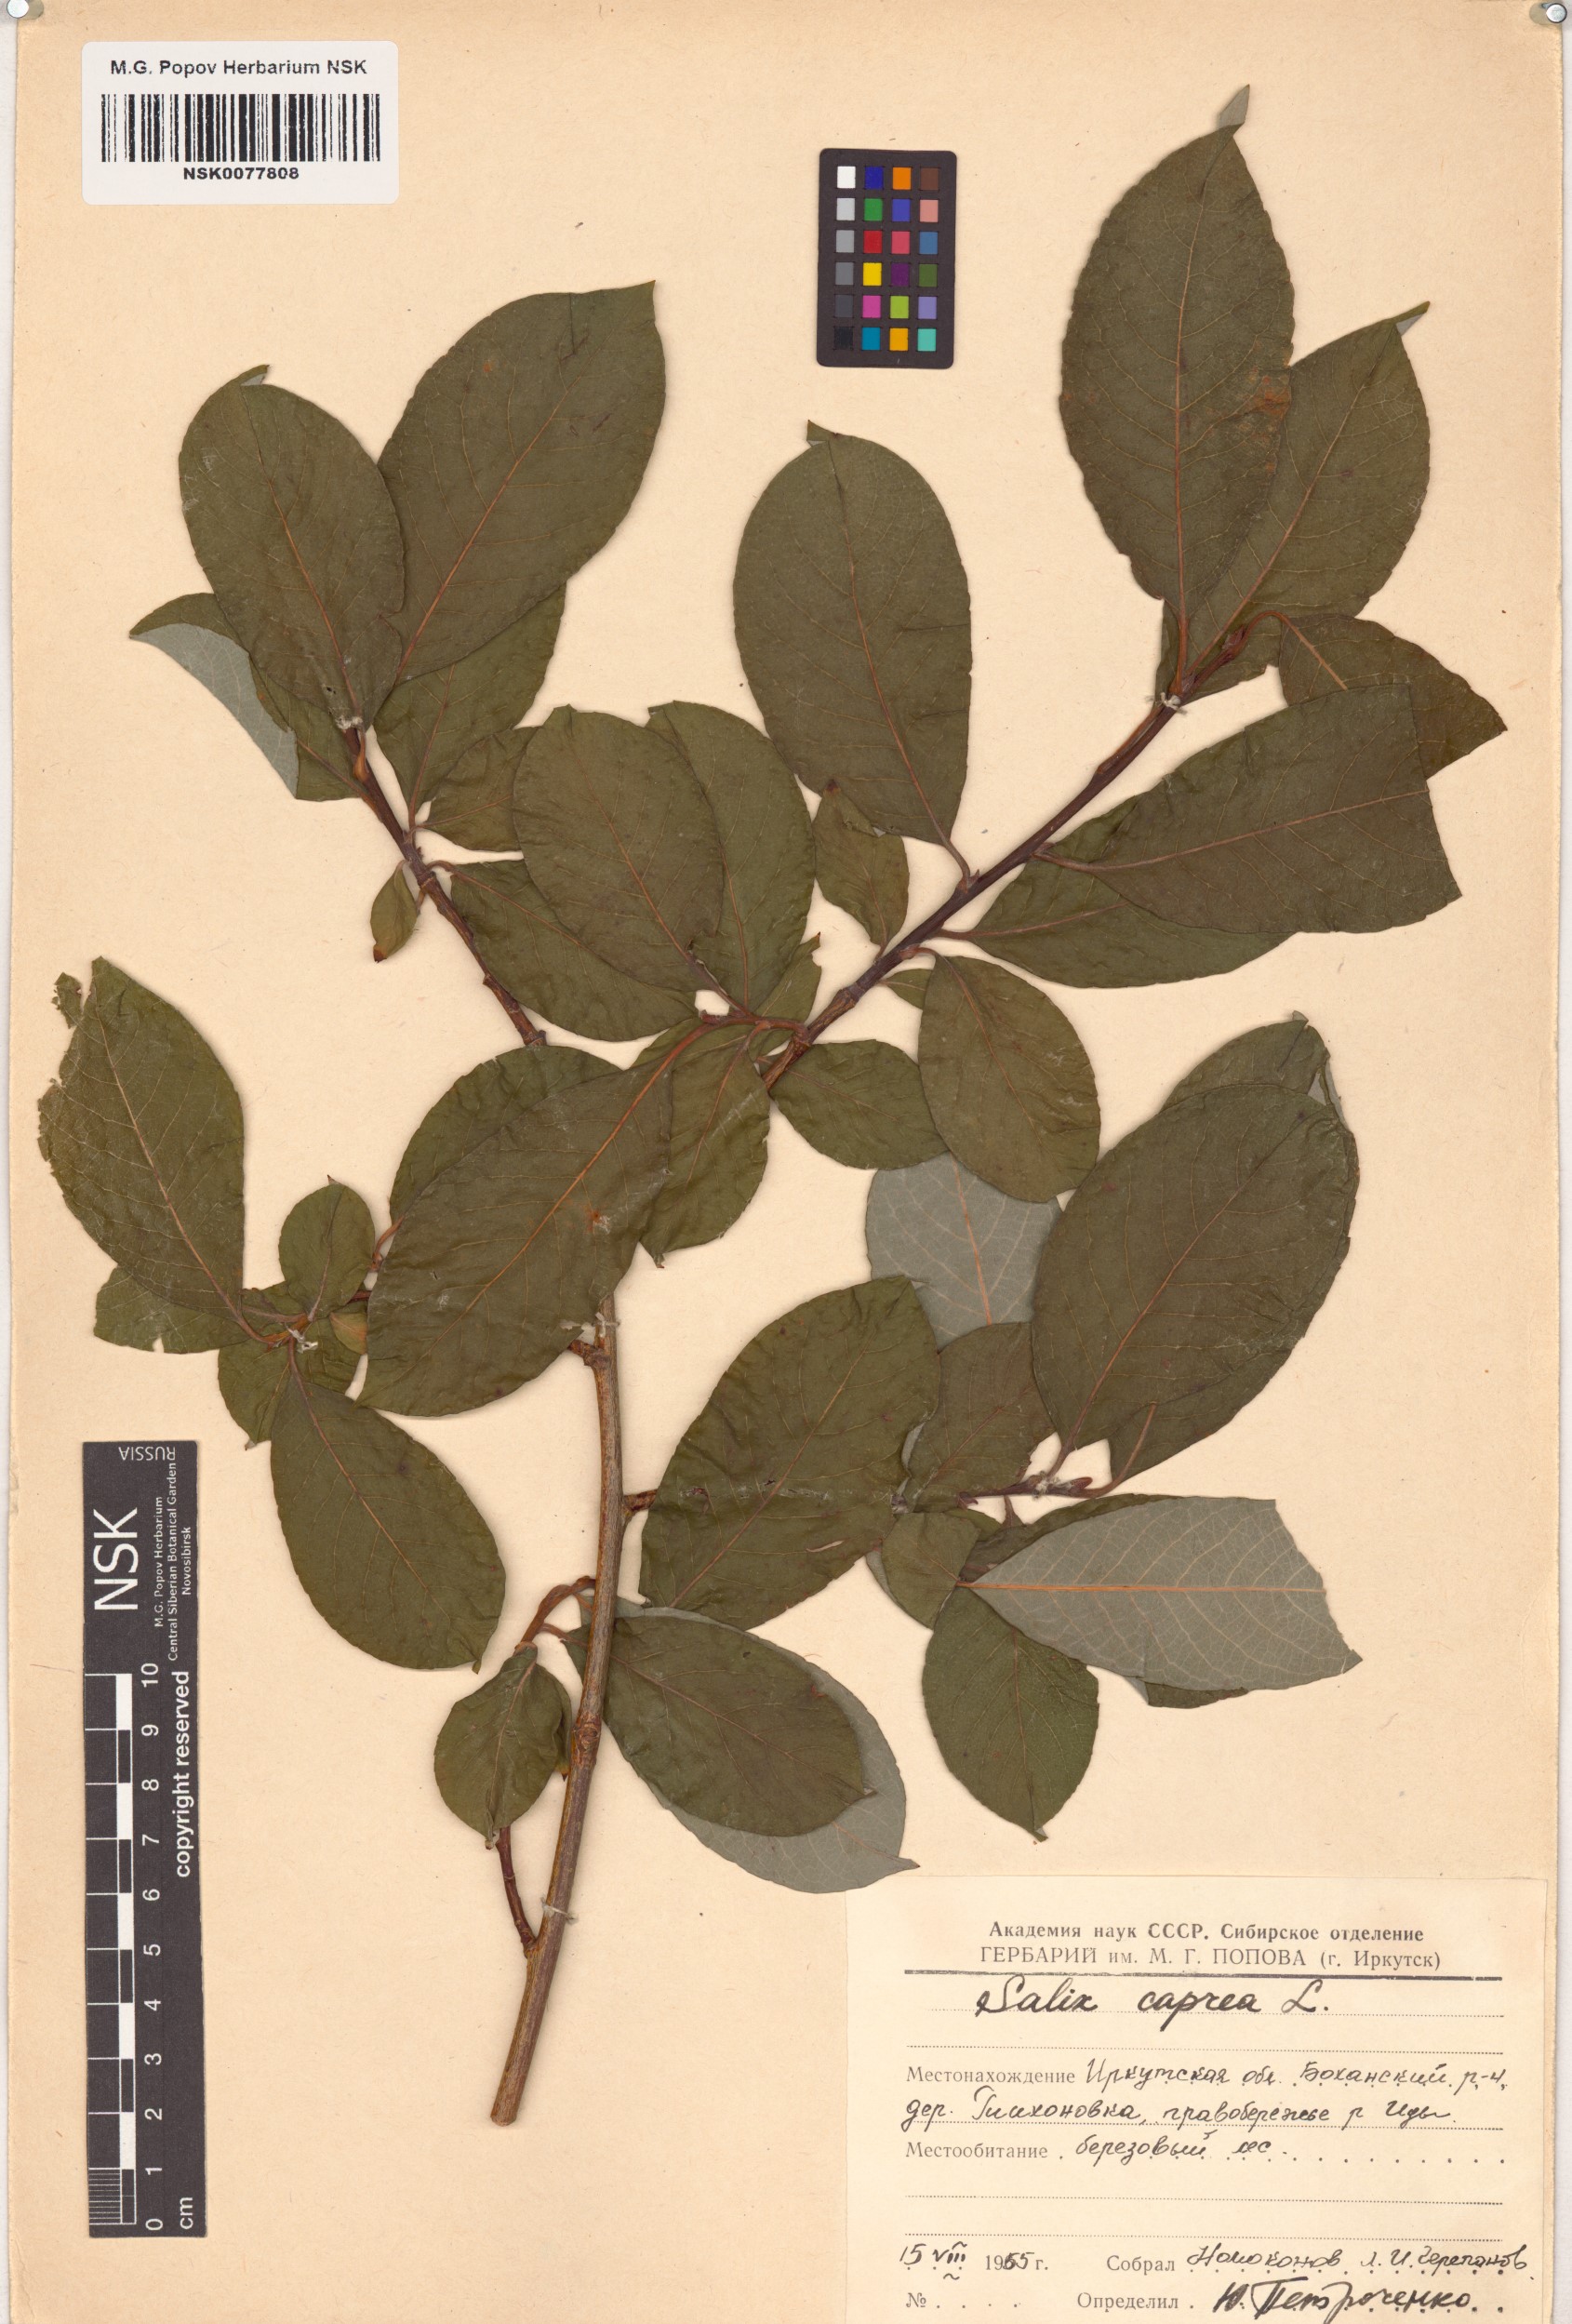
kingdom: Plantae
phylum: Tracheophyta
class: Magnoliopsida
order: Malpighiales
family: Salicaceae
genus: Salix
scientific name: Salix caprea
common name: Goat willow
